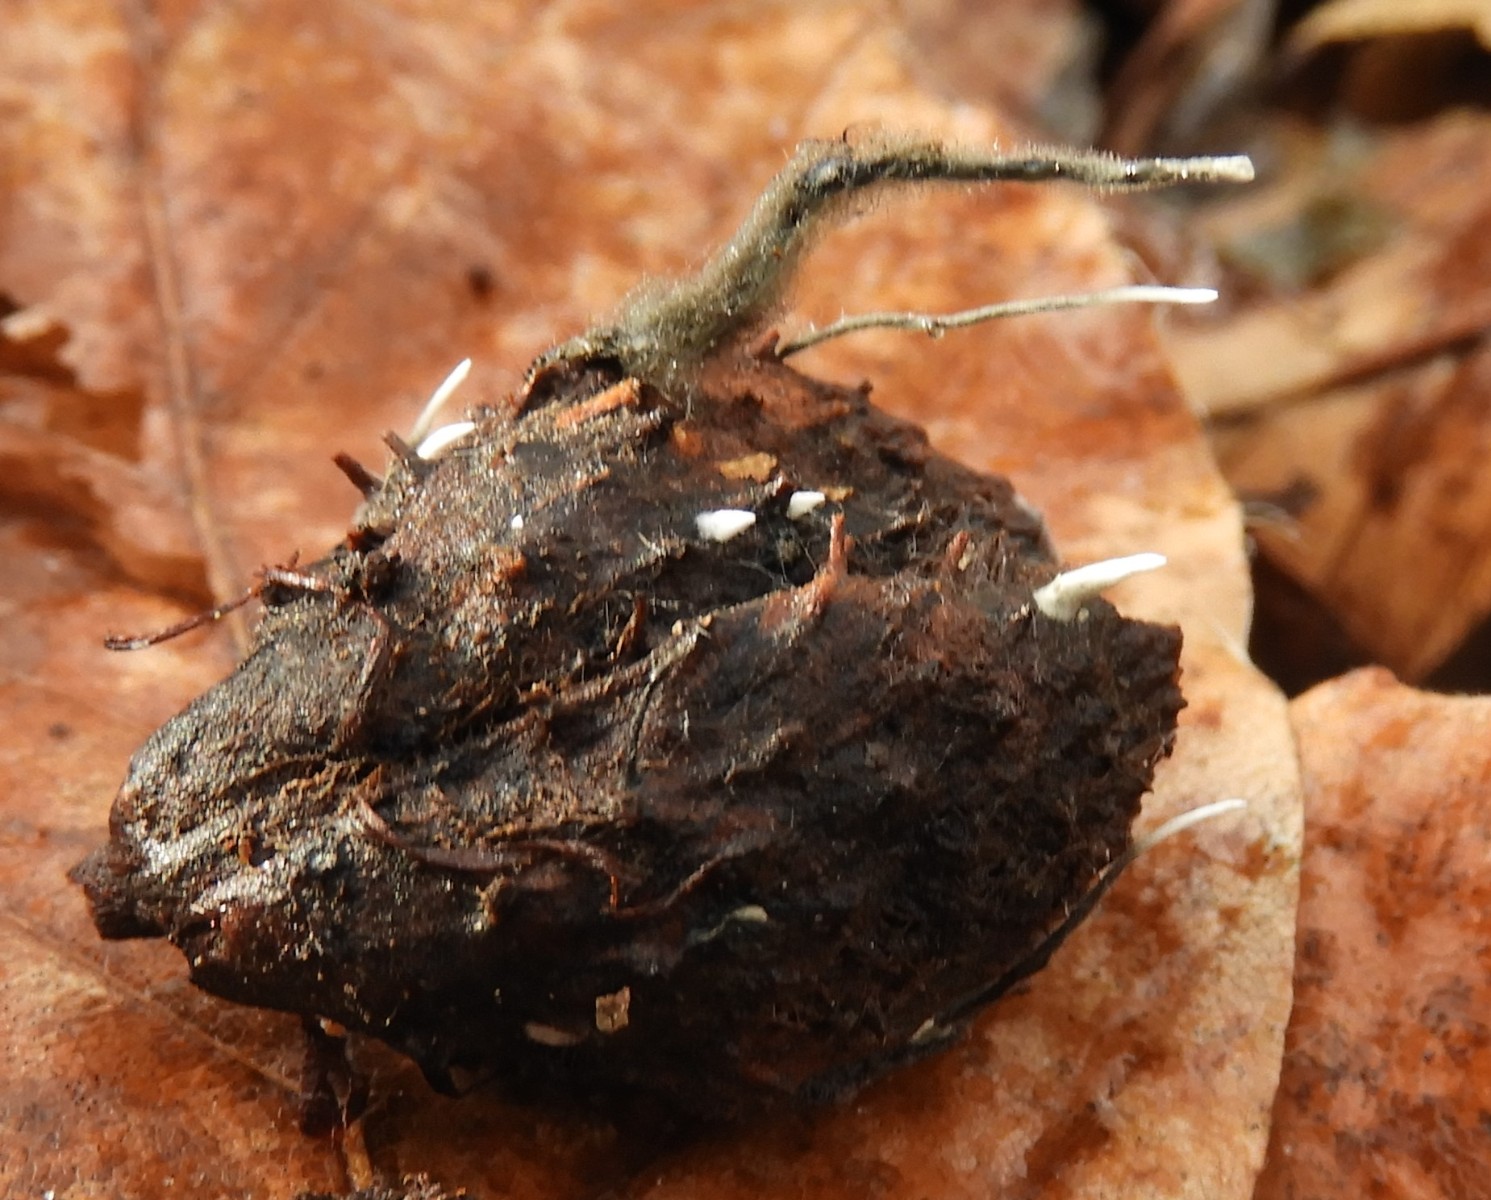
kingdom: Fungi
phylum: Ascomycota
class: Sordariomycetes
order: Xylariales
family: Xylariaceae
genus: Xylaria
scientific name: Xylaria carpophila
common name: bogskål-stødsvamp
